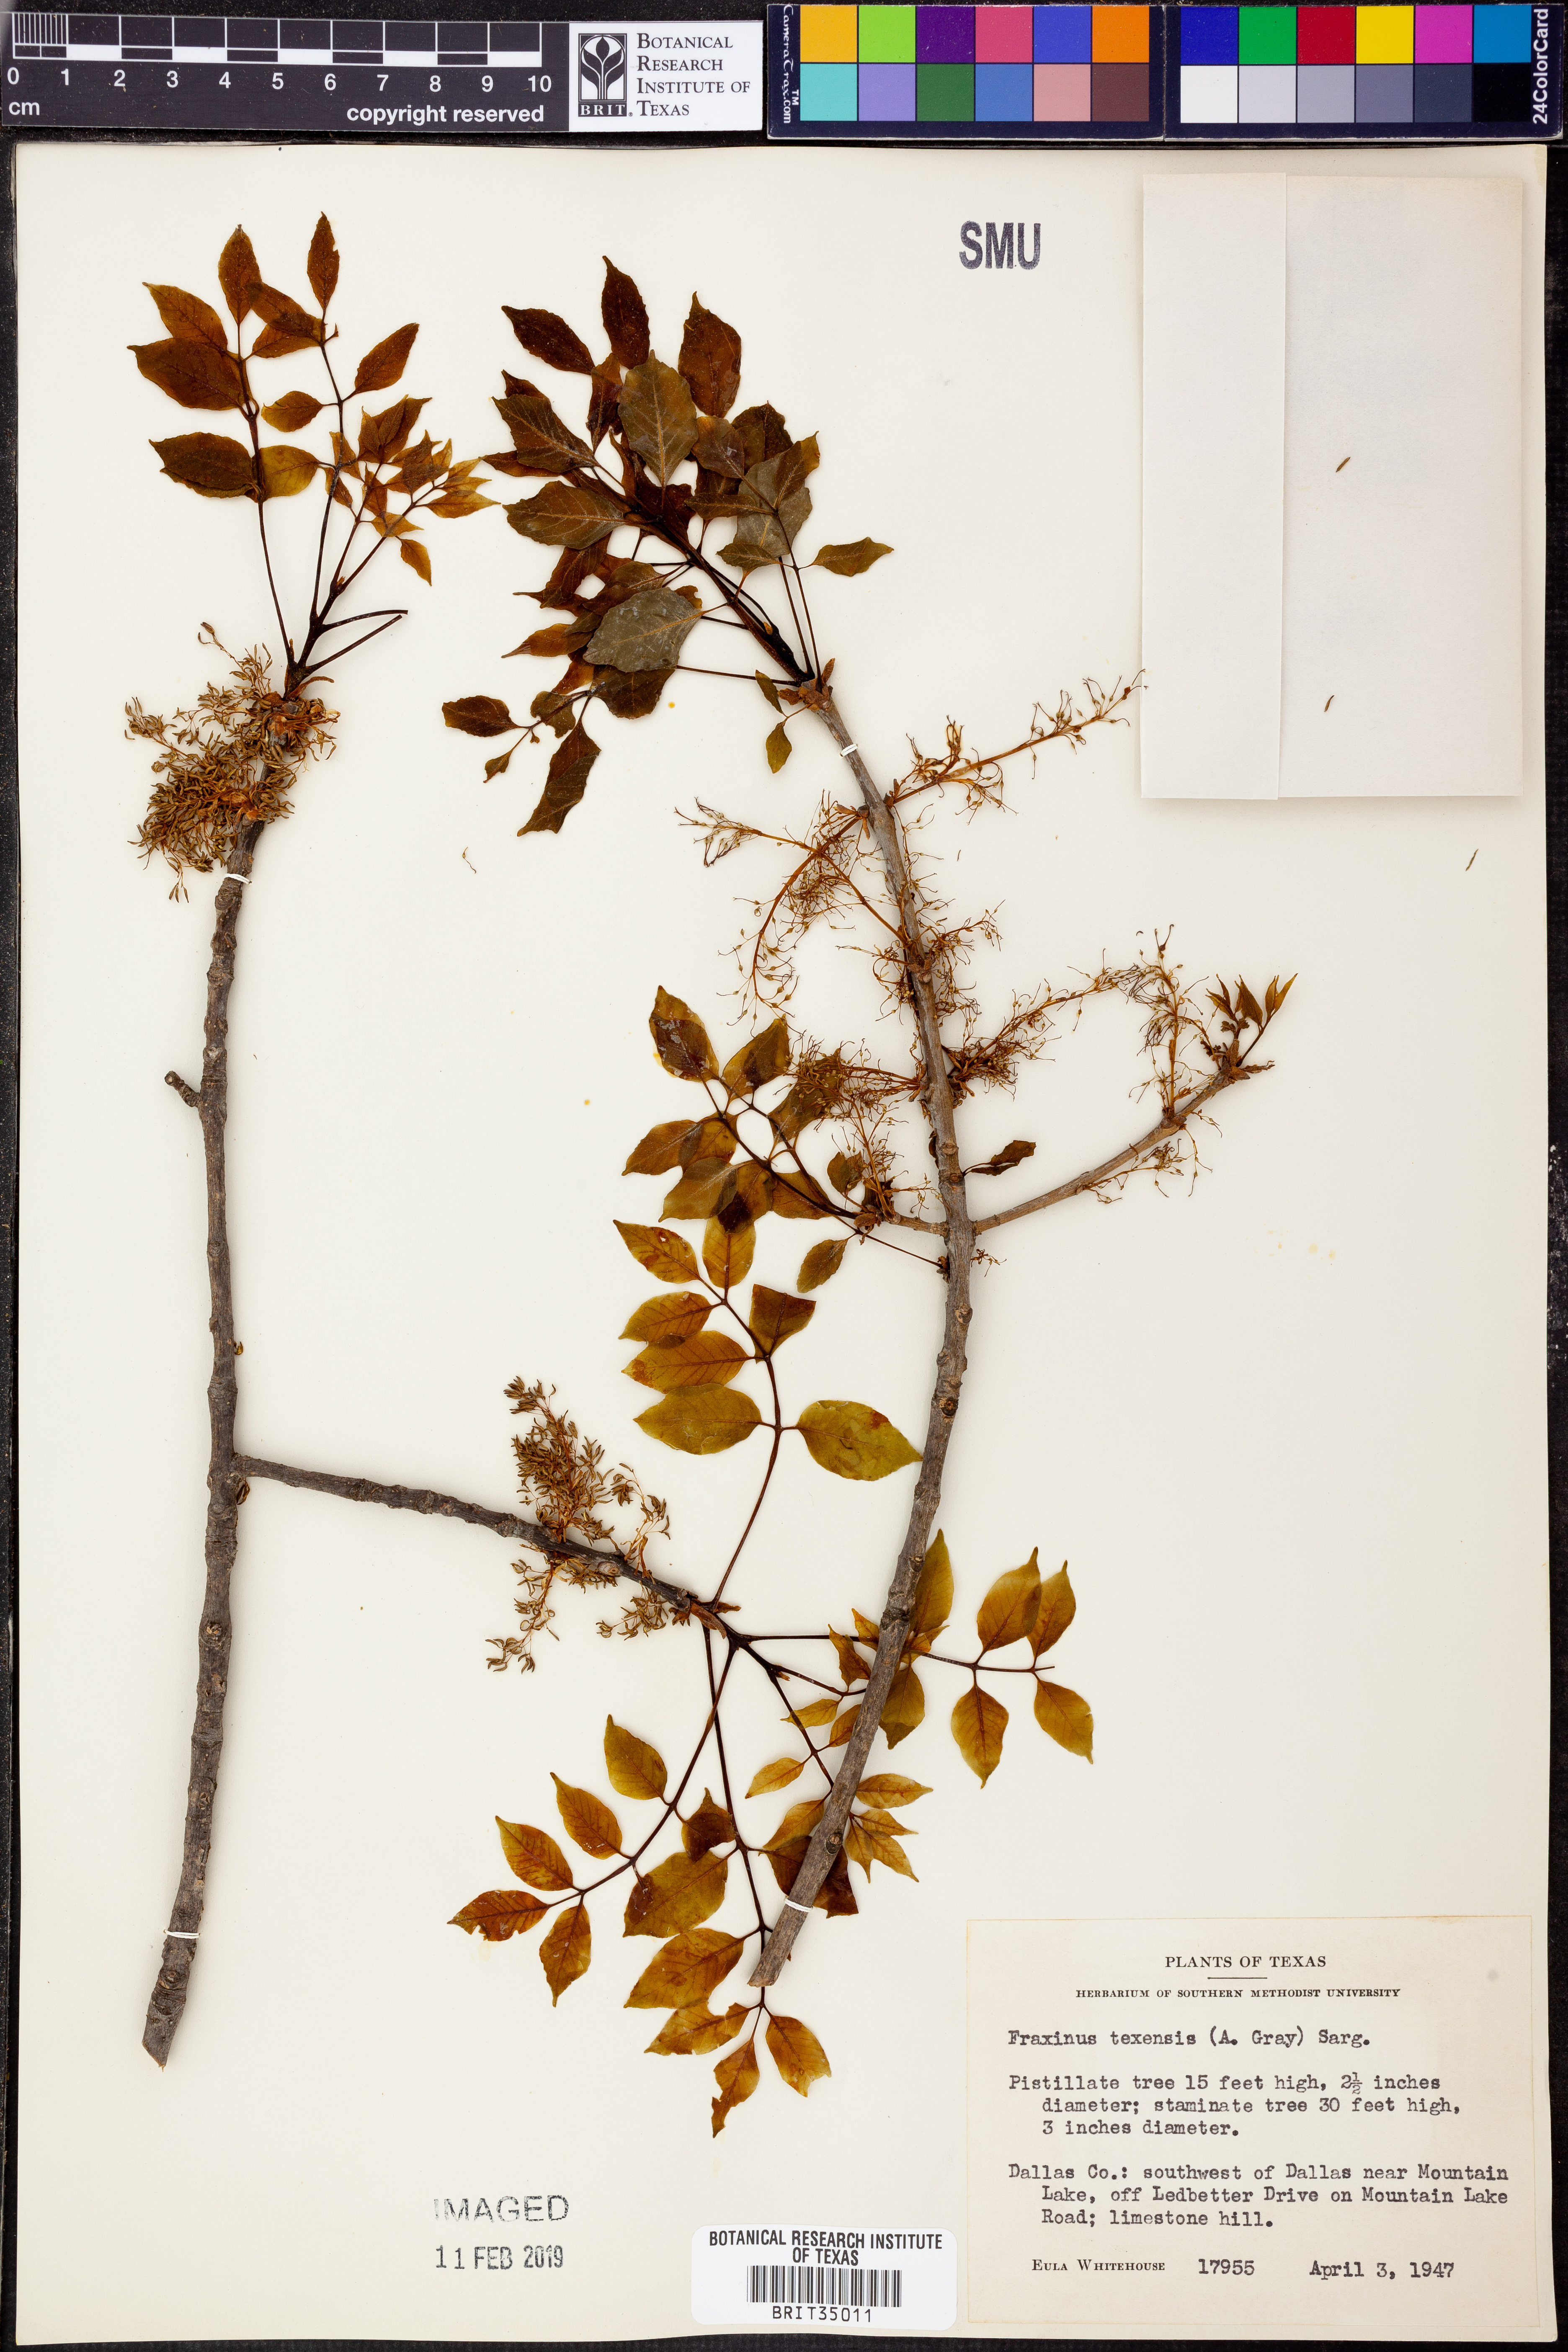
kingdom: Plantae
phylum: Tracheophyta
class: Magnoliopsida
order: Lamiales
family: Oleaceae
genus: Fraxinus
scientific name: Fraxinus albicans
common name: Texas ash
